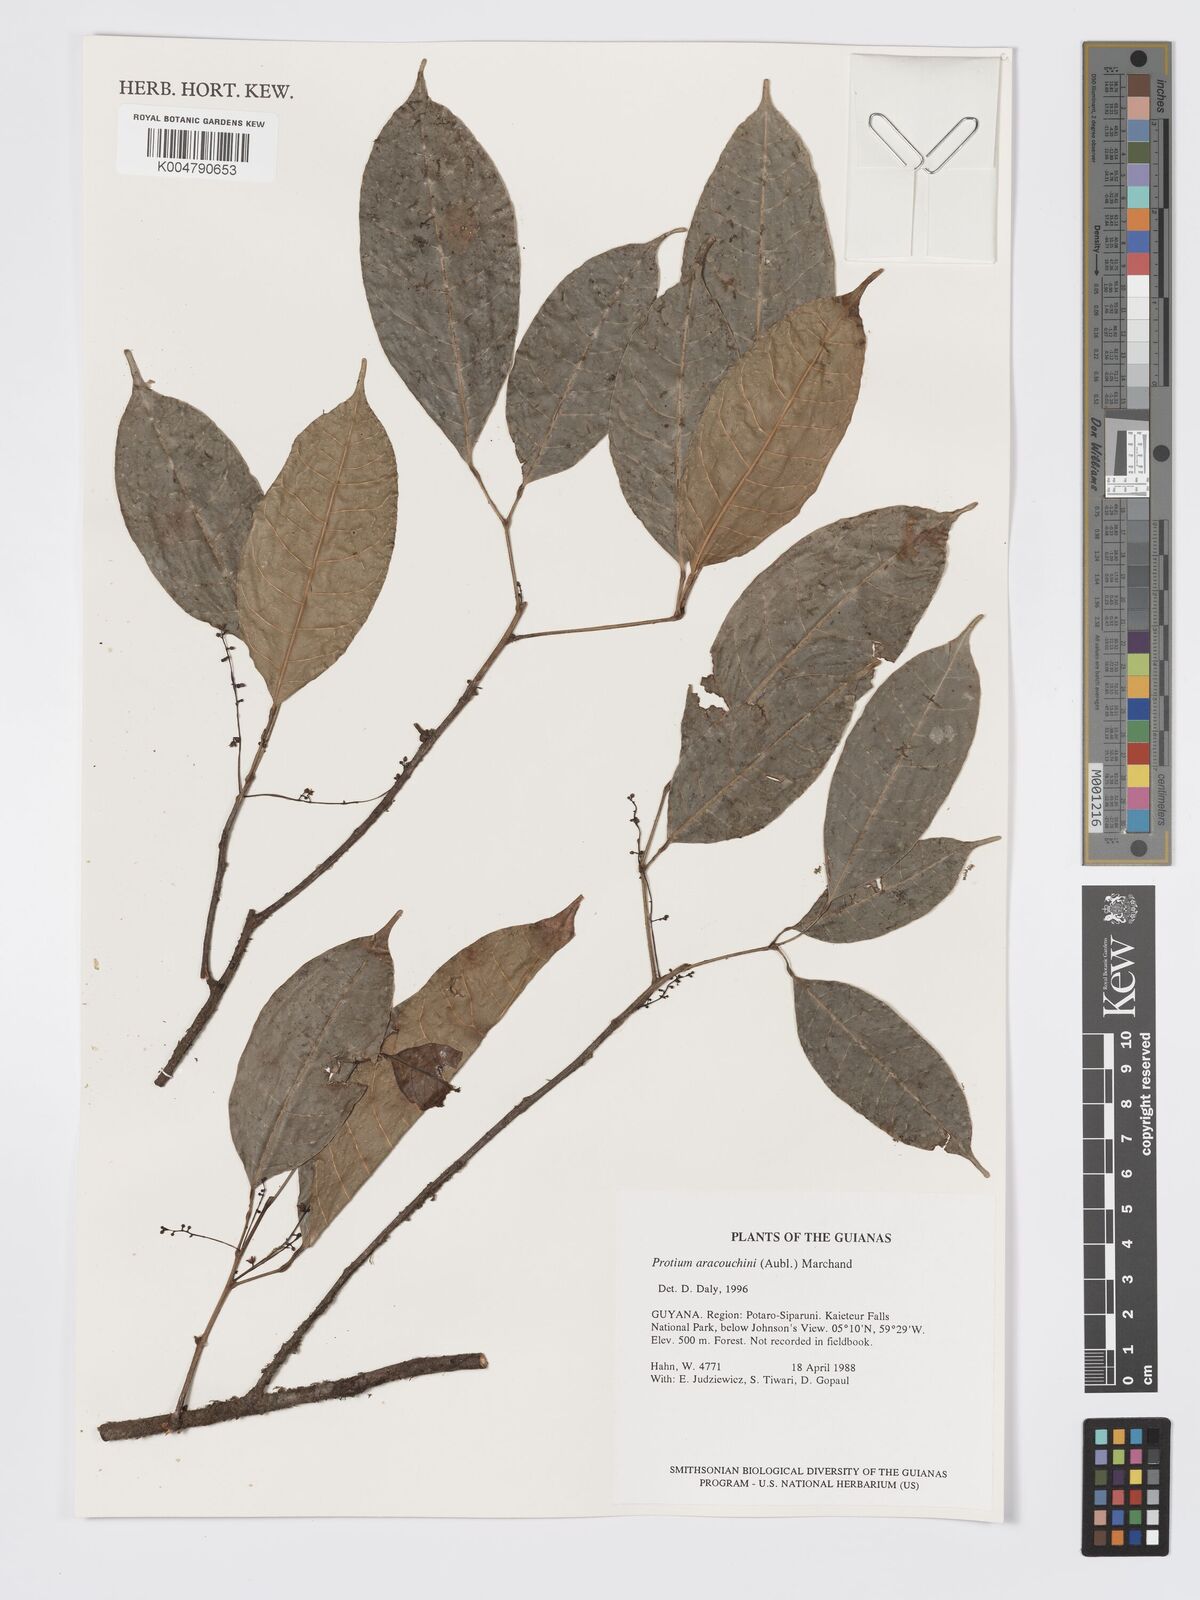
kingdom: Plantae
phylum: Tracheophyta
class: Magnoliopsida
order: Sapindales
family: Burseraceae
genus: Protium
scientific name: Protium aracouchini
